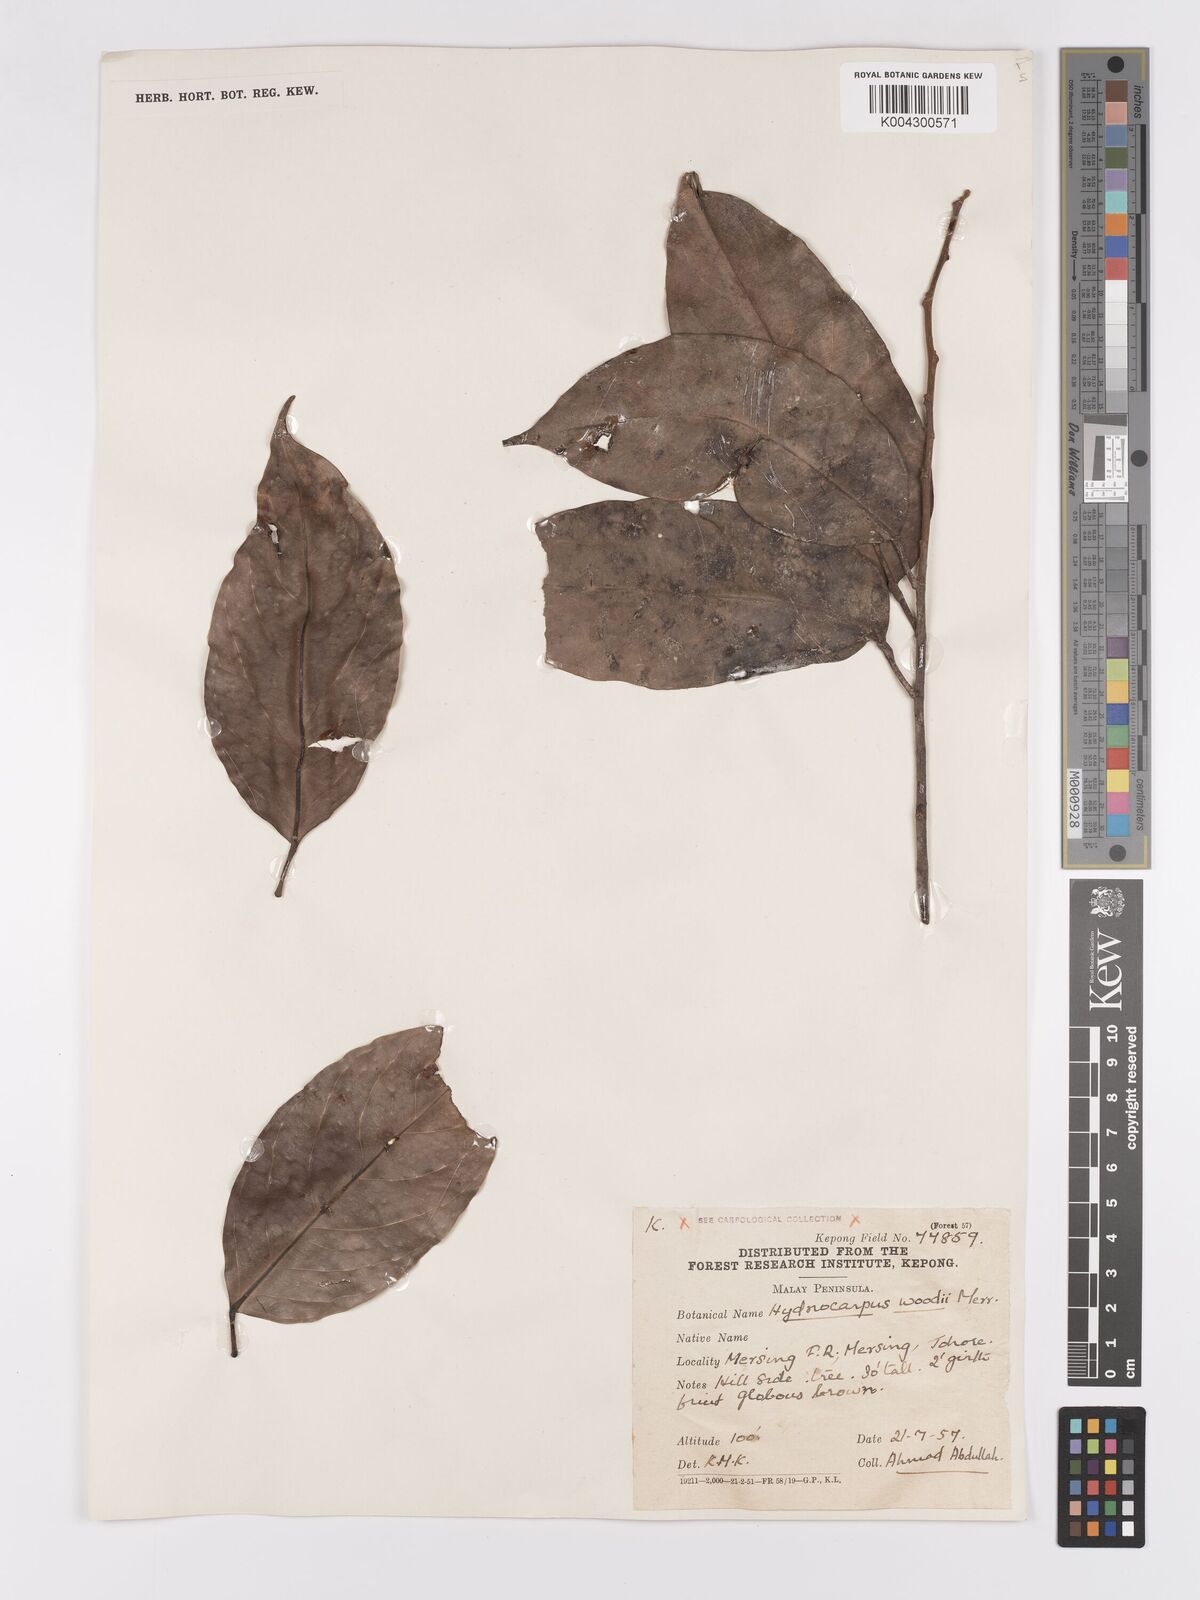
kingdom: Plantae
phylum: Tracheophyta
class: Magnoliopsida
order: Malpighiales
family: Achariaceae
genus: Hydnocarpus
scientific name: Hydnocarpus woodii
